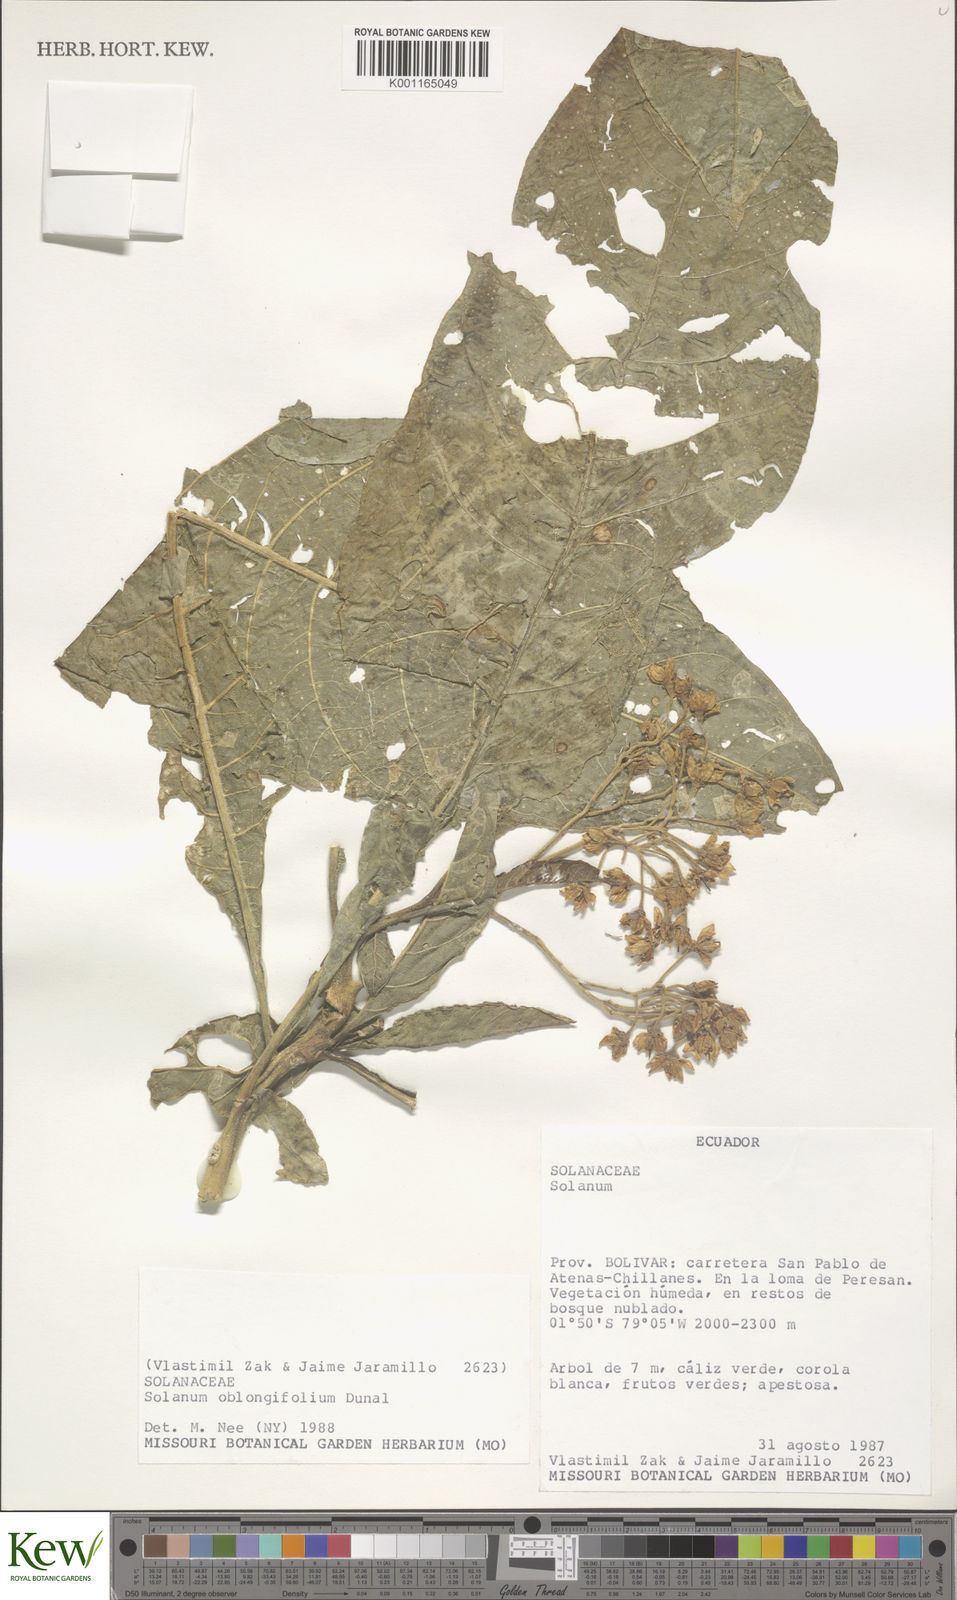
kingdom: Plantae
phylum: Tracheophyta
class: Magnoliopsida
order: Solanales
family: Solanaceae
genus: Solanum
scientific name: Solanum oblongifolium
